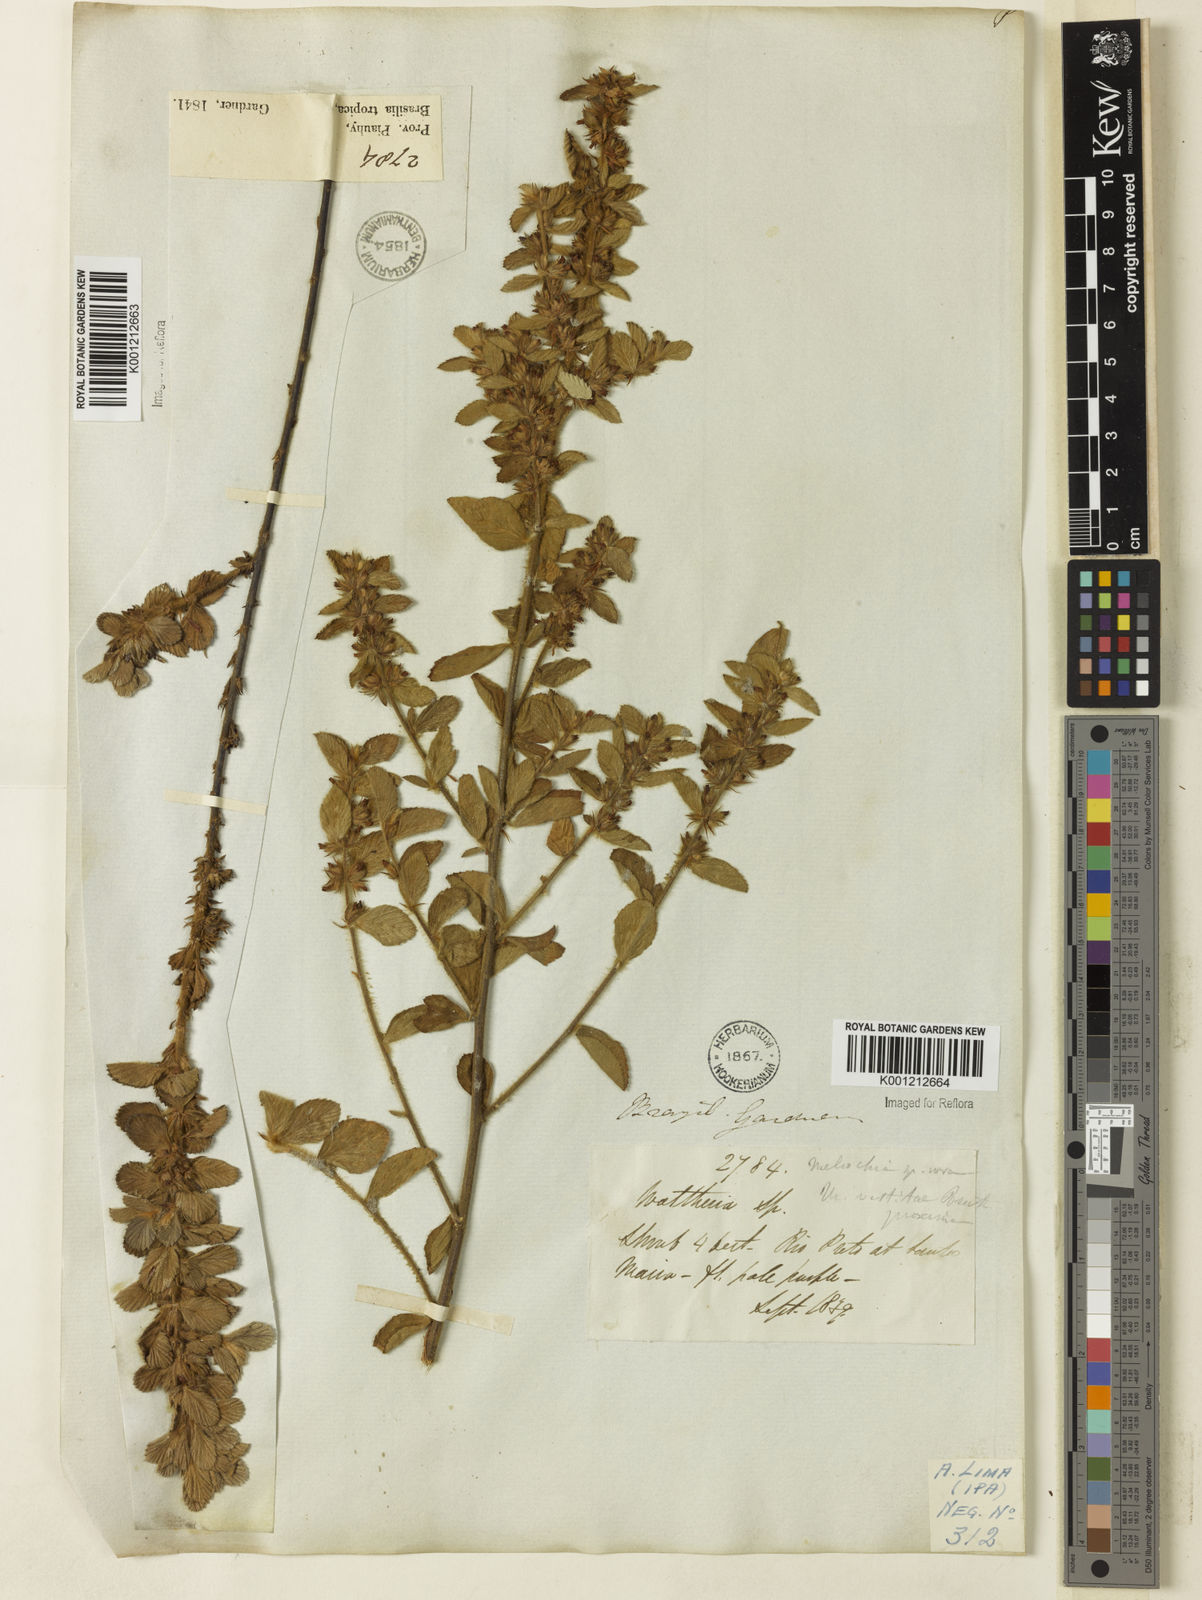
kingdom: Plantae
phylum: Tracheophyta
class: Magnoliopsida
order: Malvales
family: Malvaceae
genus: Melochia
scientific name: Melochia spicata
